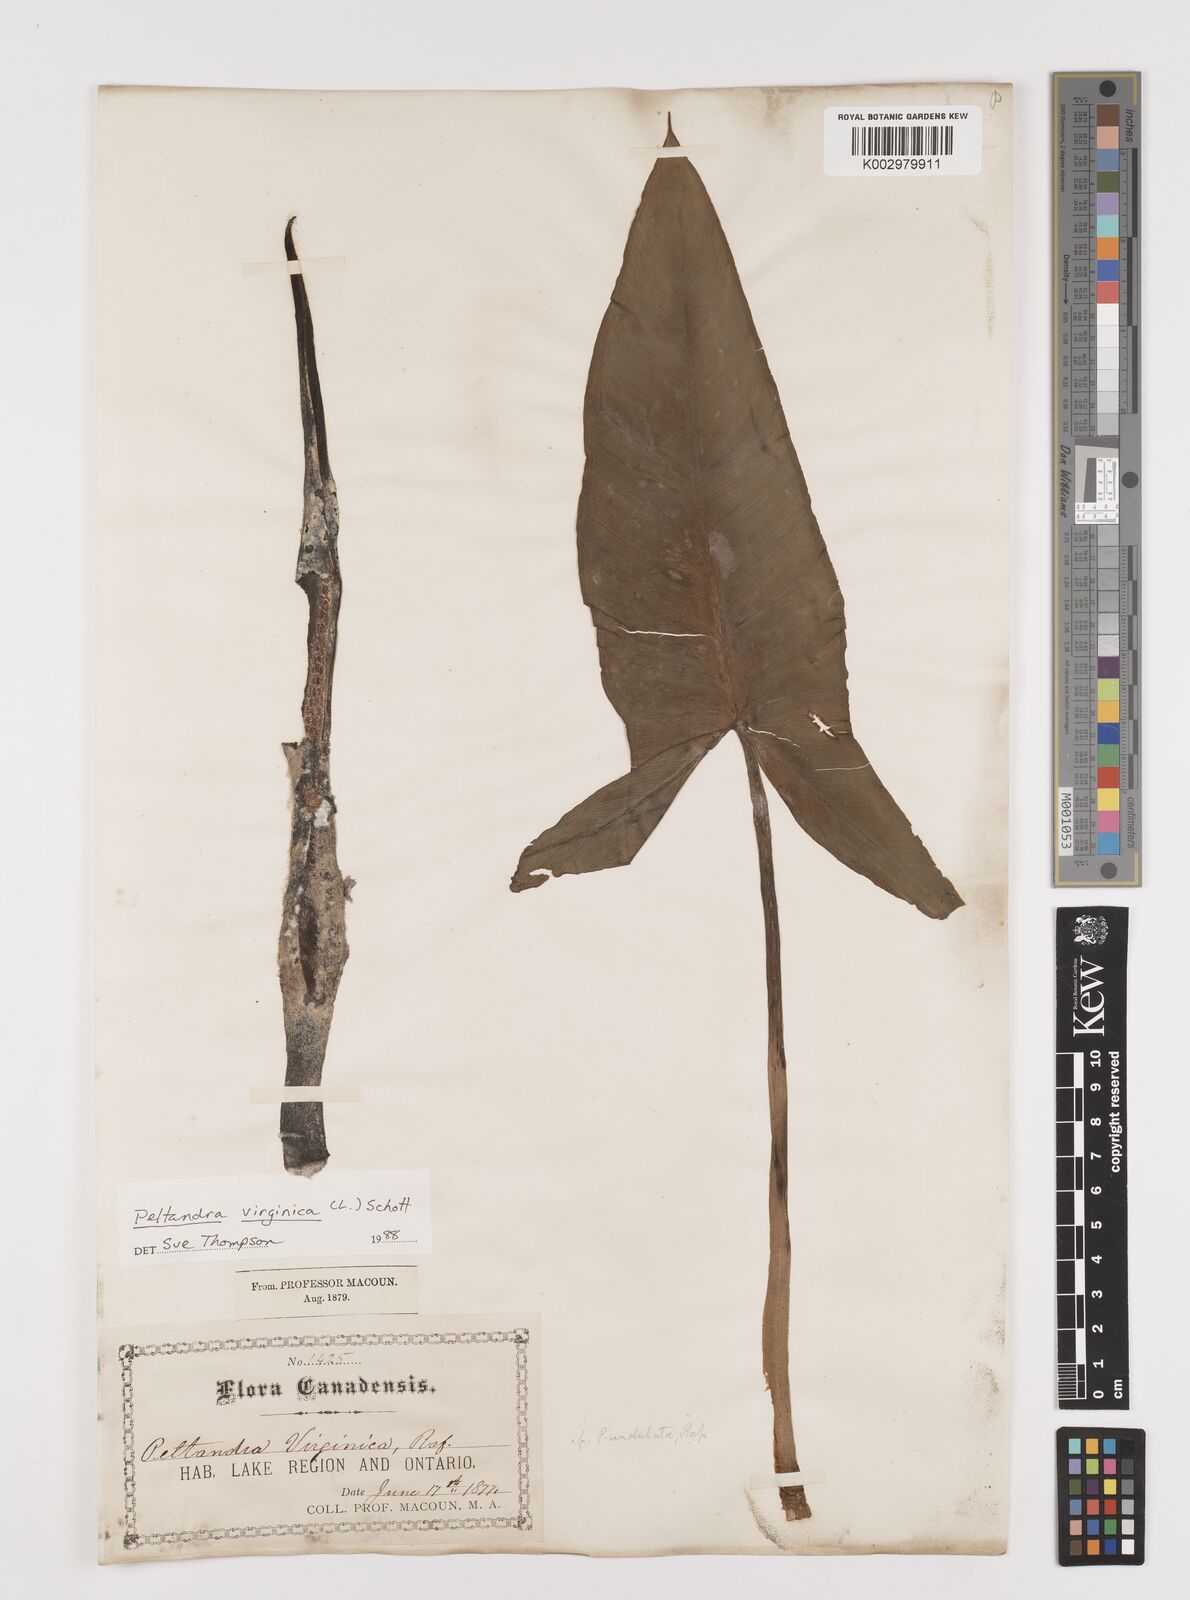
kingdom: Plantae
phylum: Tracheophyta
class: Liliopsida
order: Alismatales
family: Araceae
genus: Peltandra
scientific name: Peltandra virginica
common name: Arrow arum
